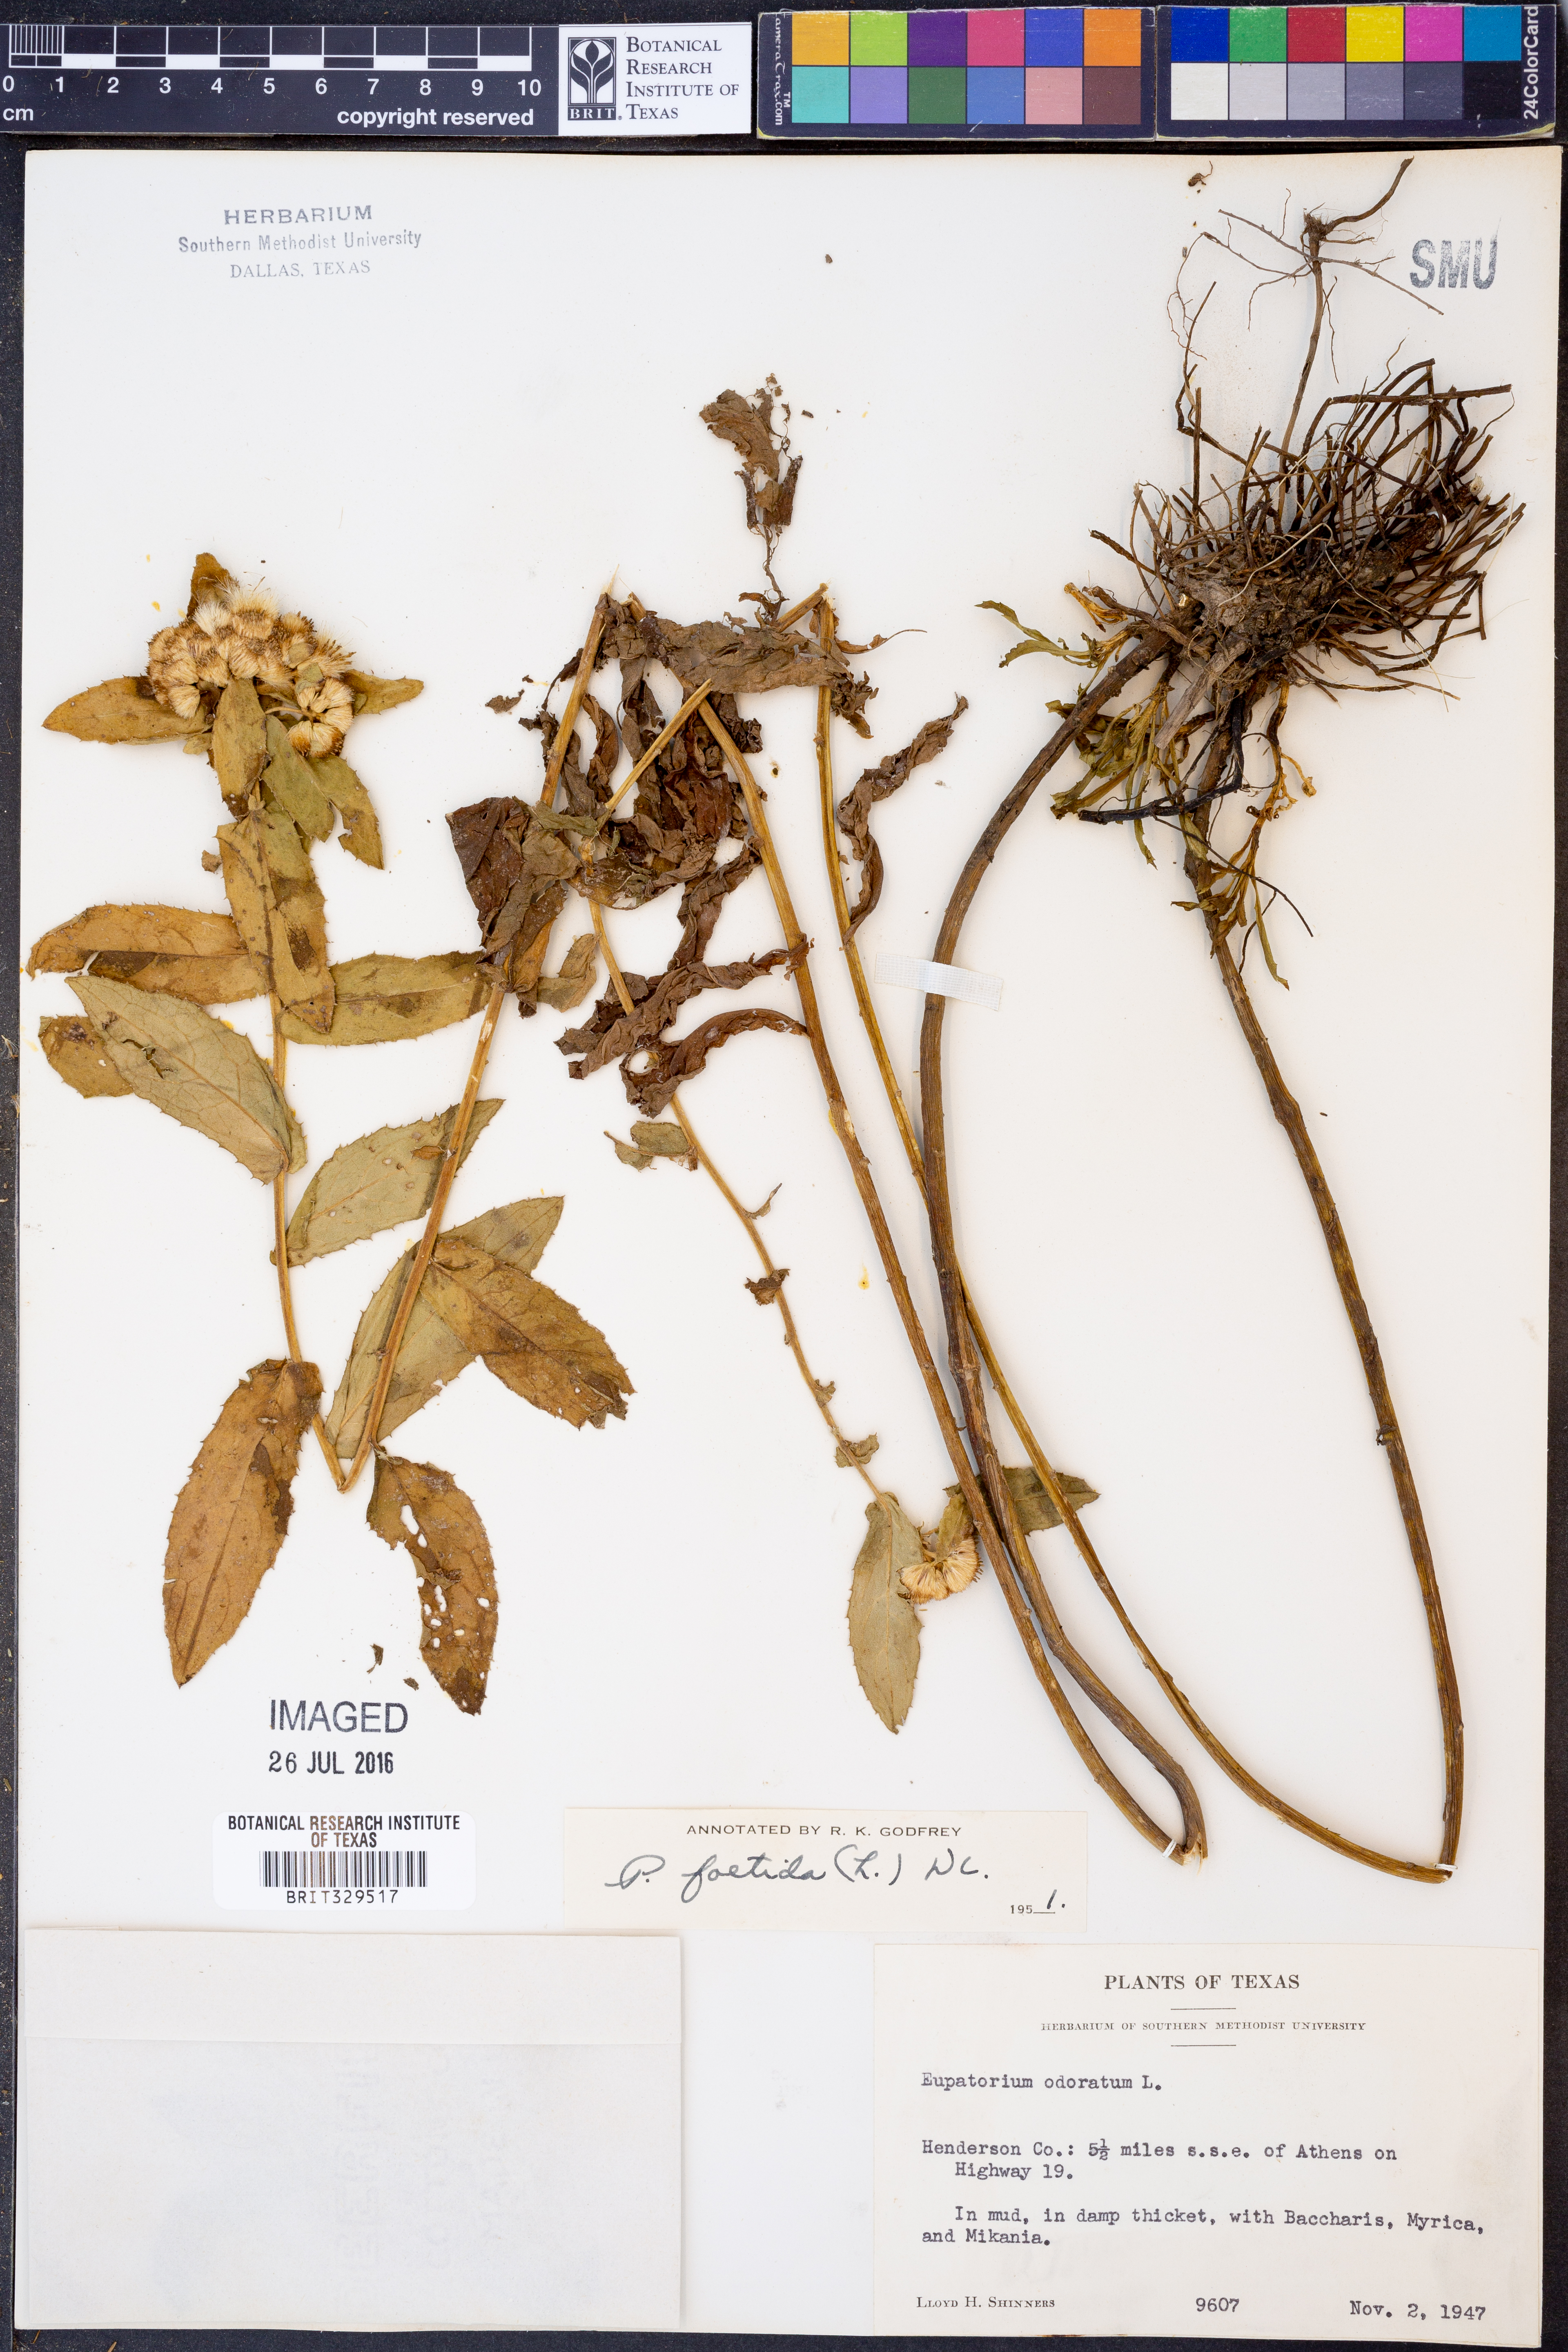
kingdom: Plantae
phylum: Tracheophyta
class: Magnoliopsida
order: Asterales
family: Asteraceae
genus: Pluchea
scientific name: Pluchea foetida
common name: Stinking camphorweed
